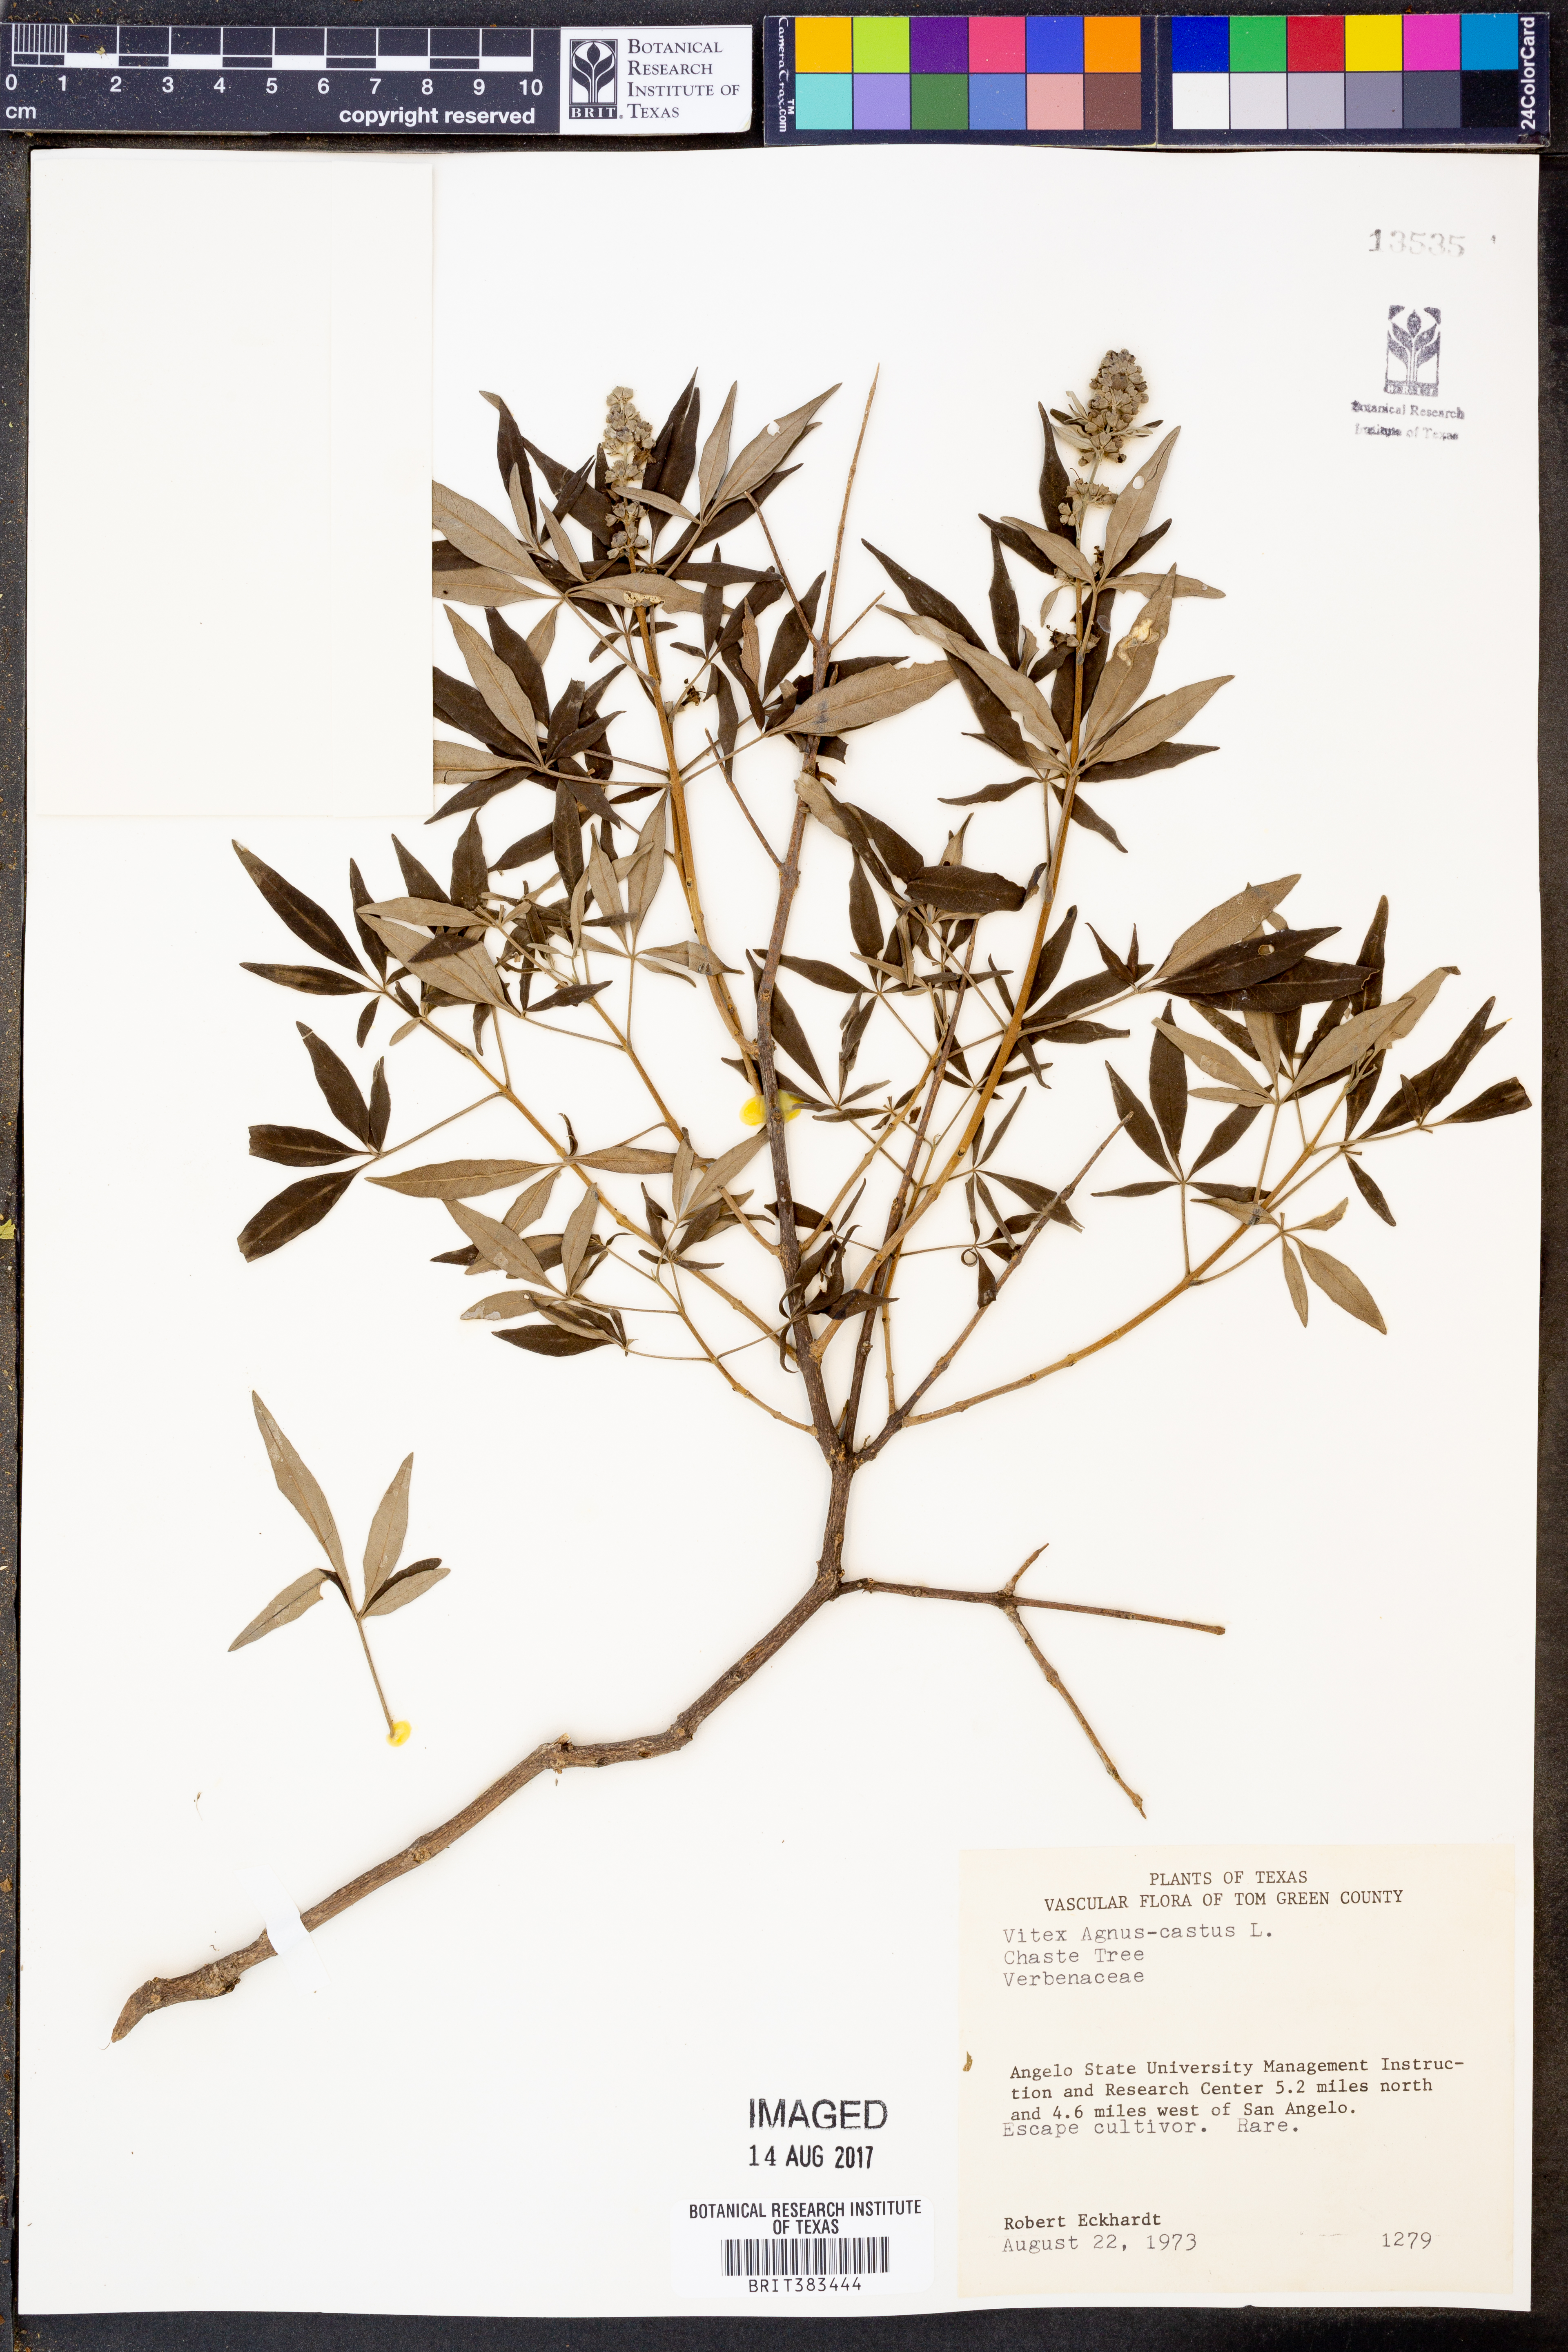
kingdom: Plantae
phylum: Tracheophyta
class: Magnoliopsida
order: Lamiales
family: Lamiaceae
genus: Vitex
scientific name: Vitex agnus-castus
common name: Chasteberry
